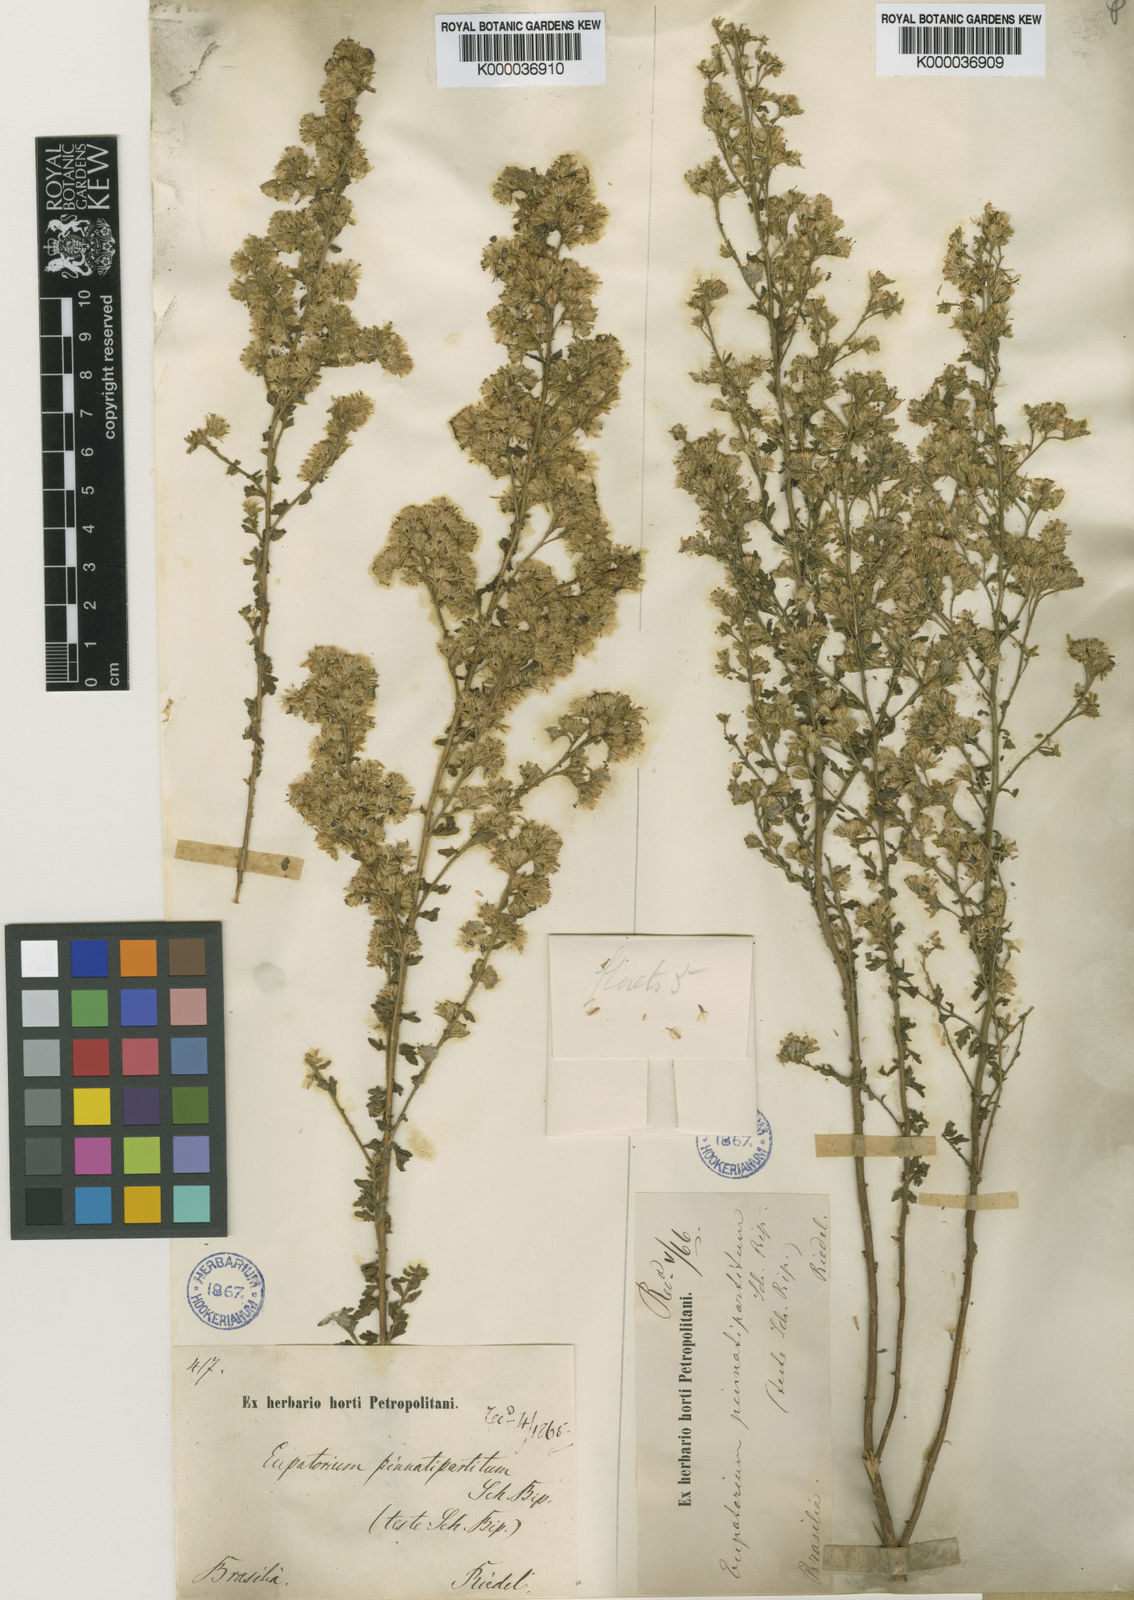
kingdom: Plantae
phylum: Tracheophyta
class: Magnoliopsida
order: Asterales
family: Asteraceae
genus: Stomatanthes
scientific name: Stomatanthes pinnatipartitus
